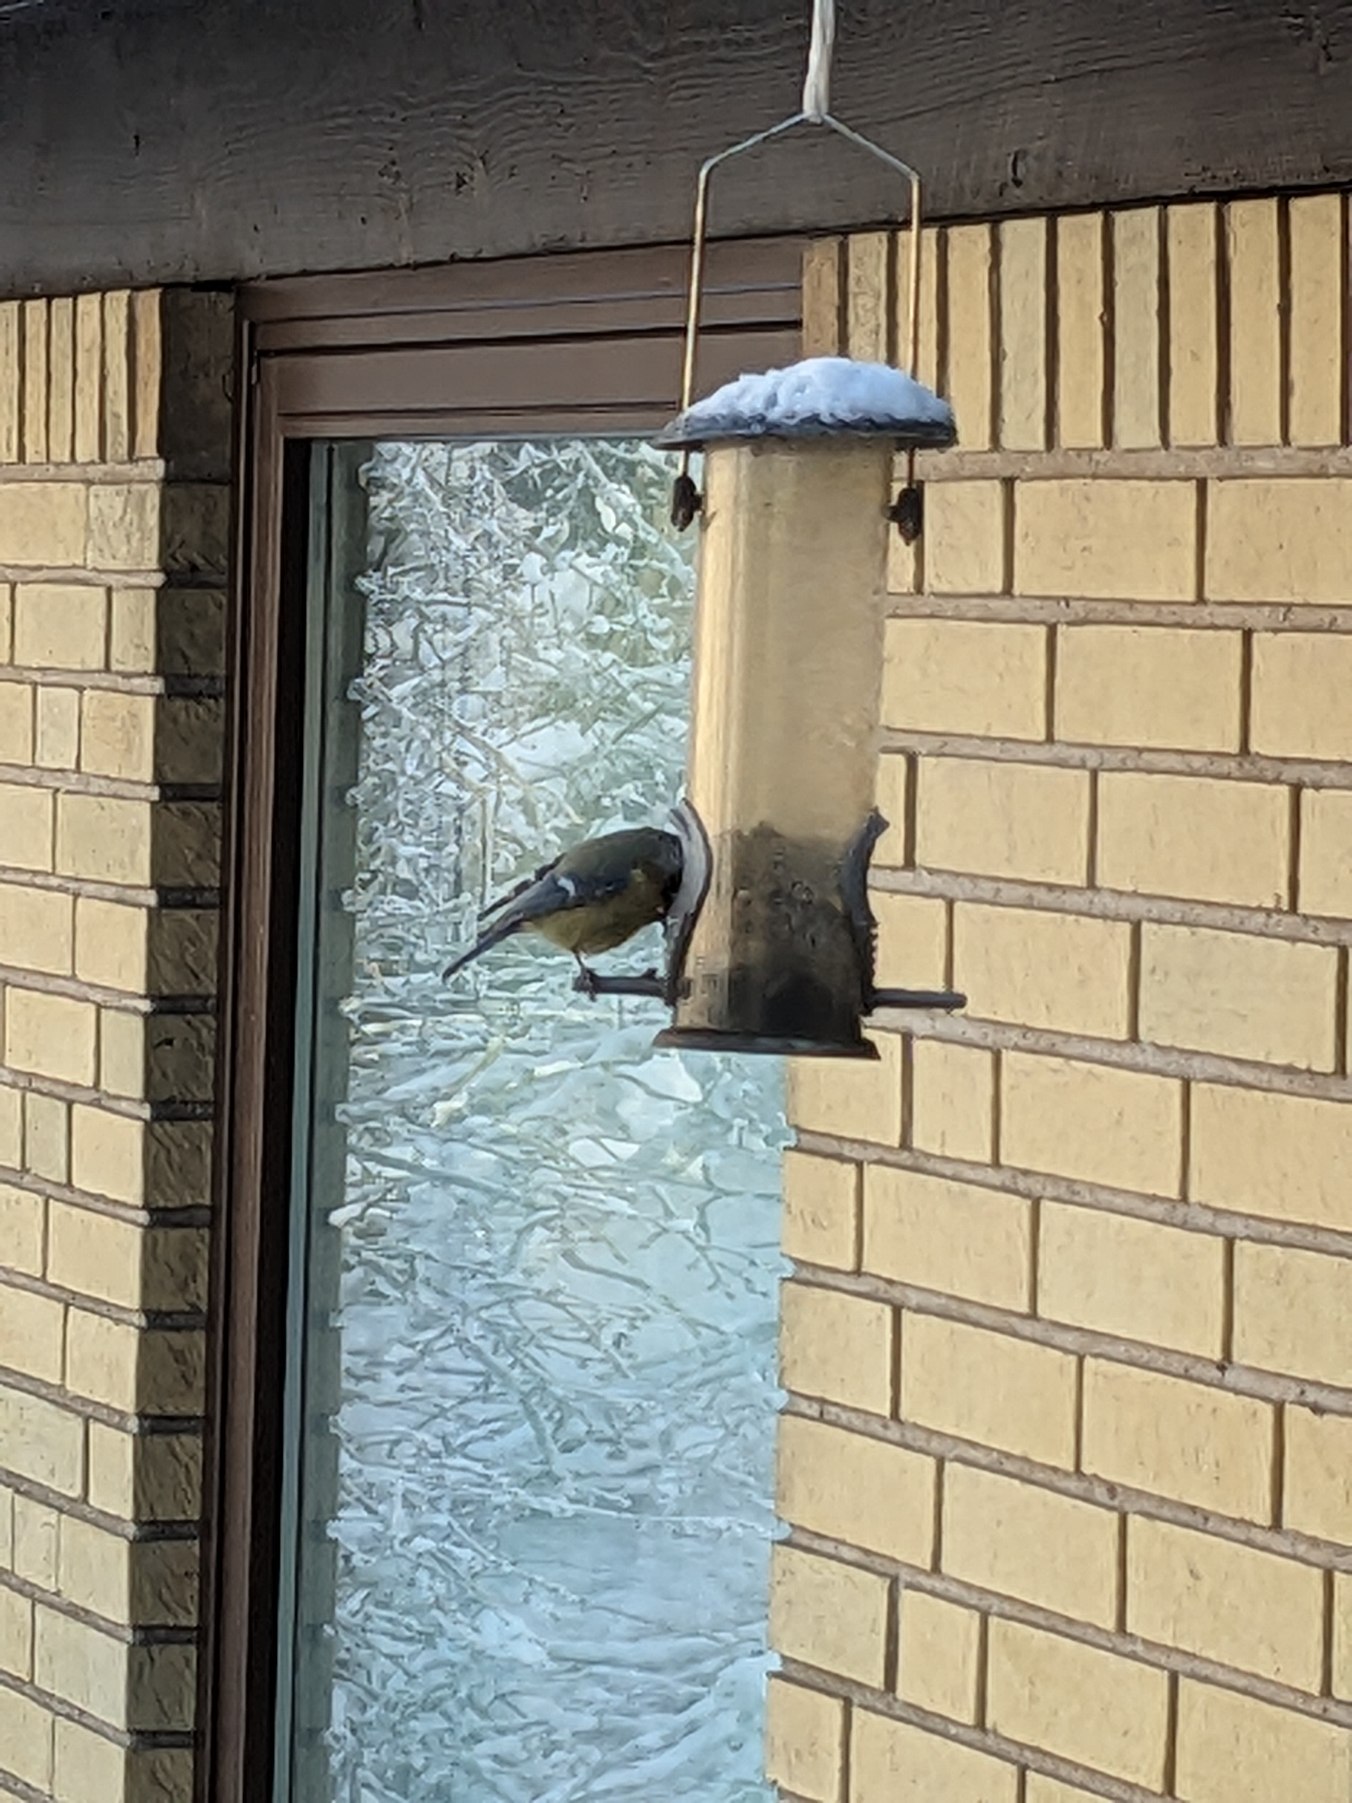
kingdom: Animalia
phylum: Chordata
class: Aves
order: Passeriformes
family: Paridae
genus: Cyanistes
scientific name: Cyanistes caeruleus
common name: Blåmejse
